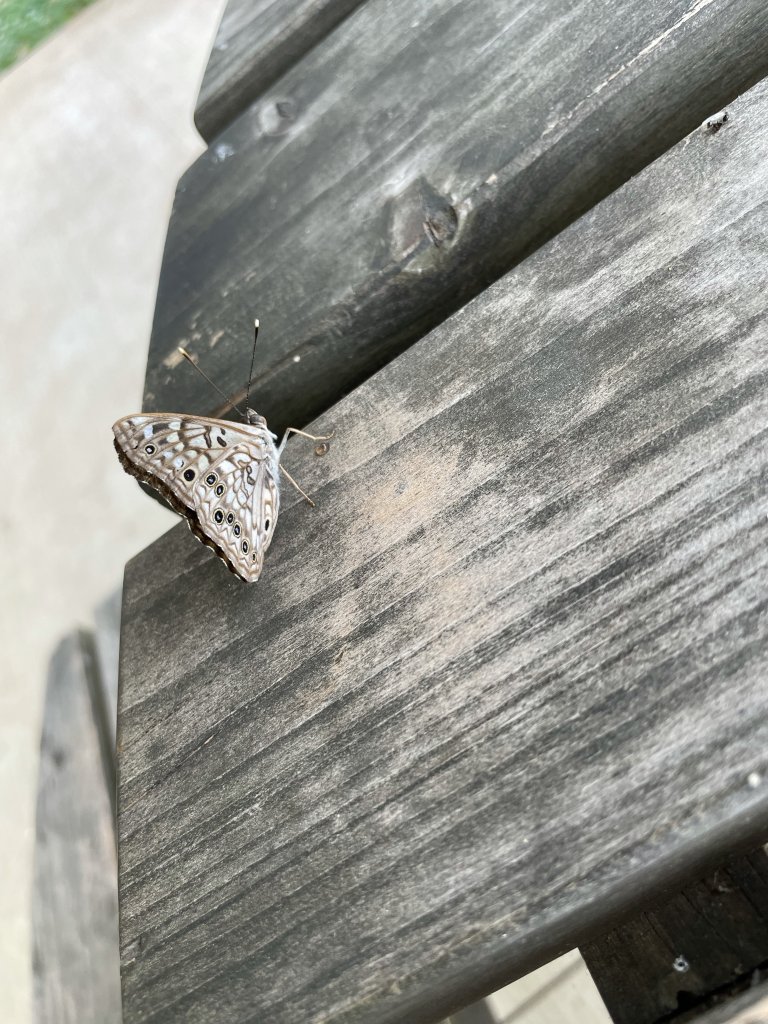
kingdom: Animalia
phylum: Arthropoda
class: Insecta
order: Lepidoptera
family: Nymphalidae
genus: Asterocampa
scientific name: Asterocampa celtis
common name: Hackberry Emperor
